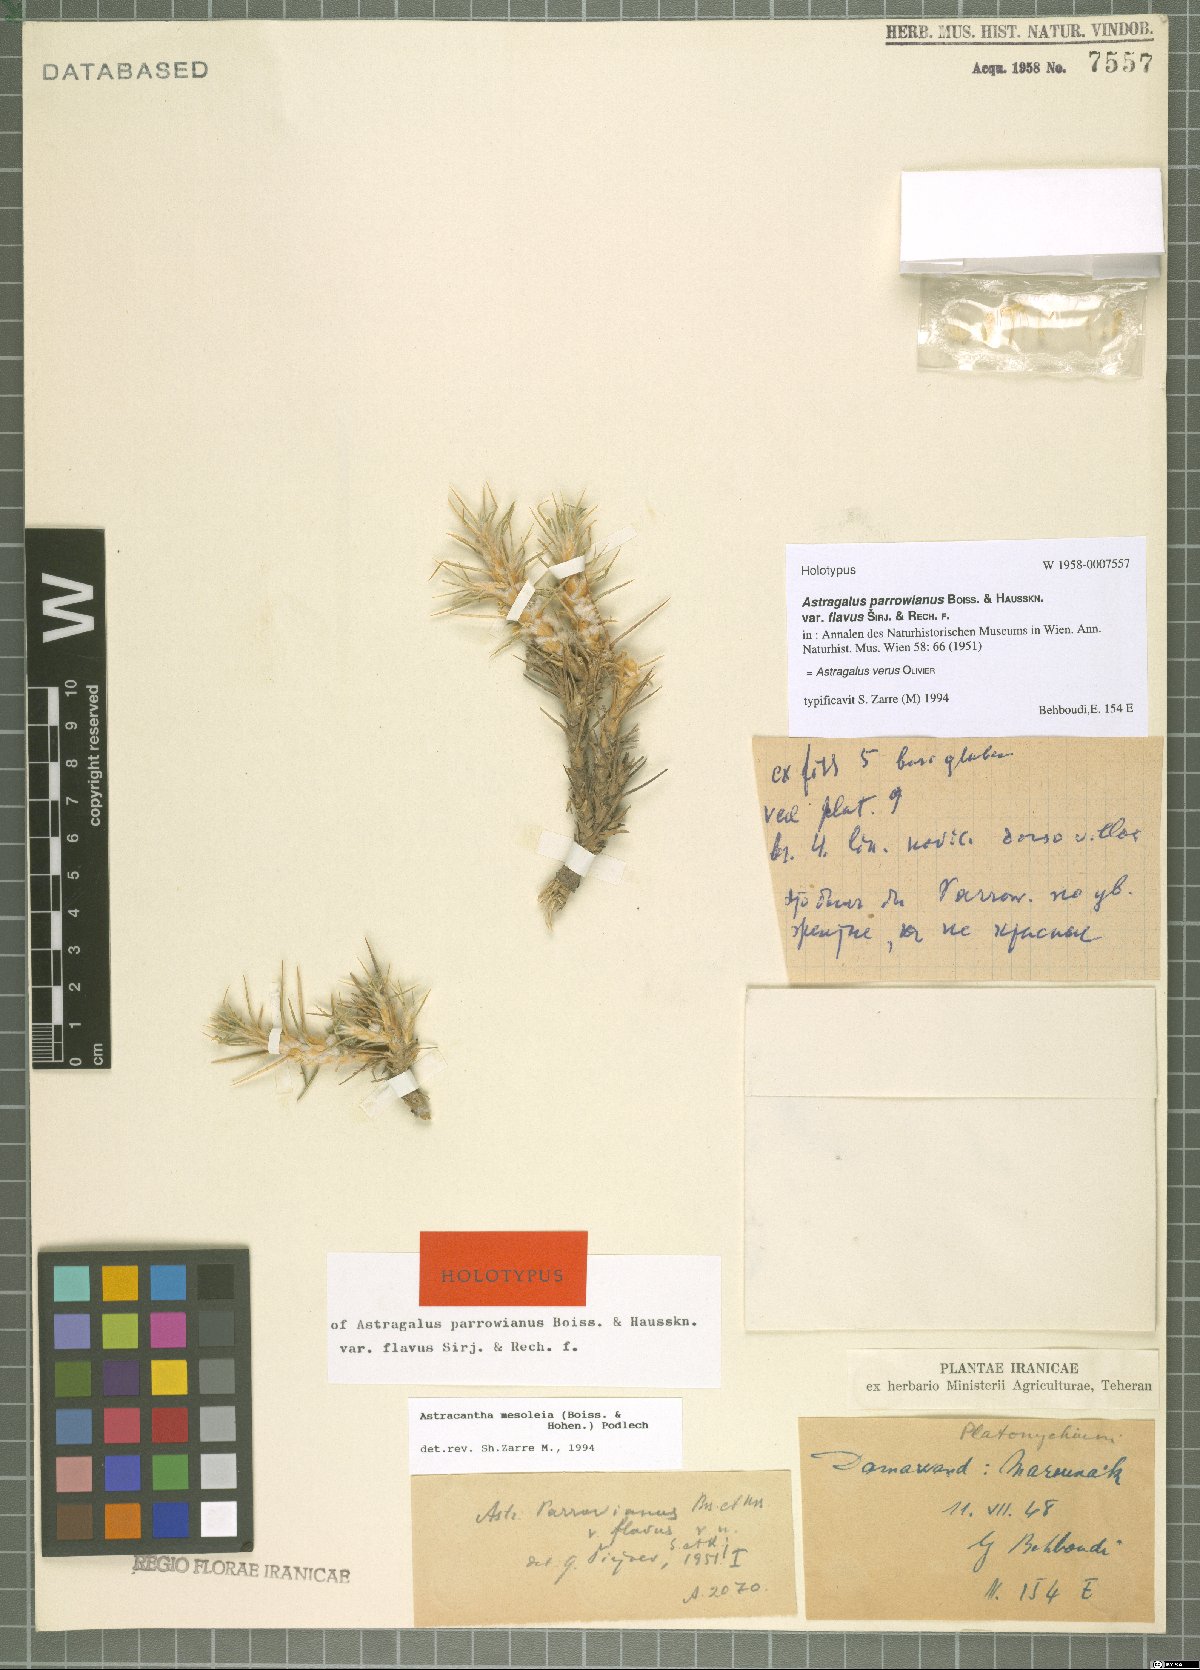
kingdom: Plantae
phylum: Tracheophyta
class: Magnoliopsida
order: Fabales
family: Fabaceae
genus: Astragalus
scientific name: Astragalus verus
